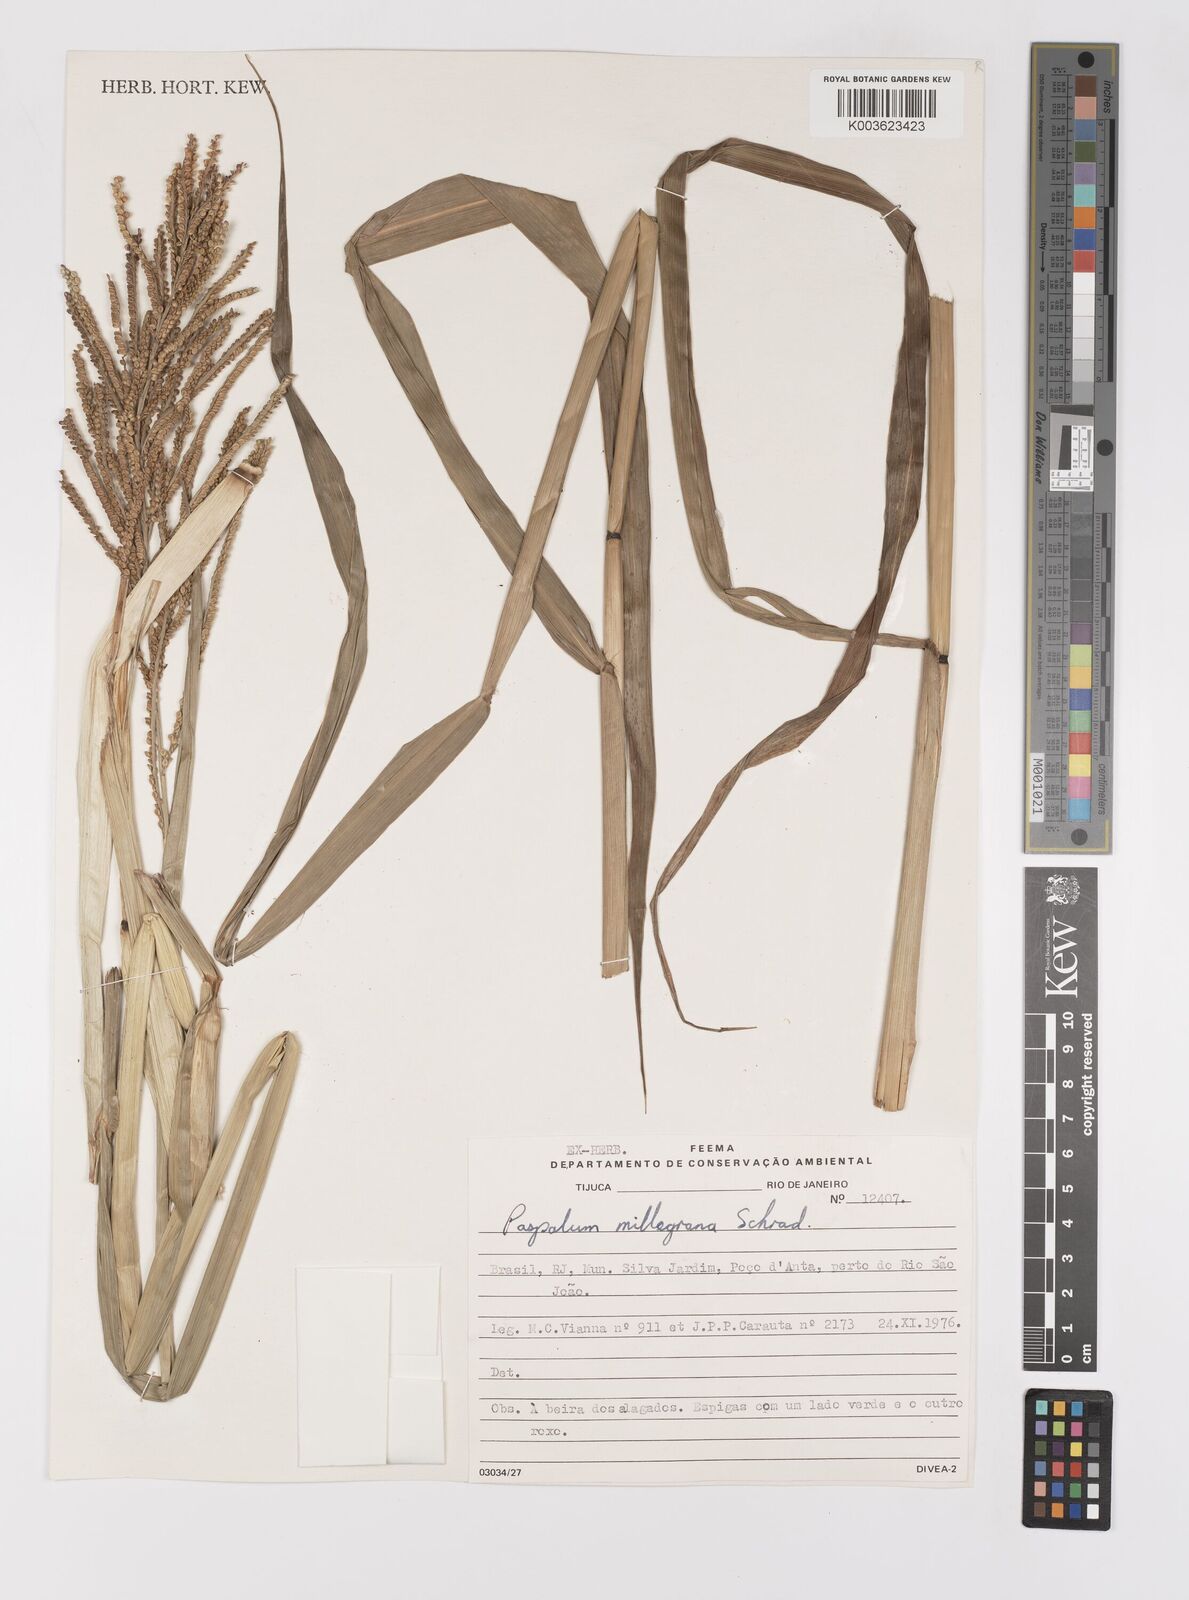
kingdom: Plantae
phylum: Tracheophyta
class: Liliopsida
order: Poales
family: Poaceae
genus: Paspalum
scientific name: Paspalum millegranum
